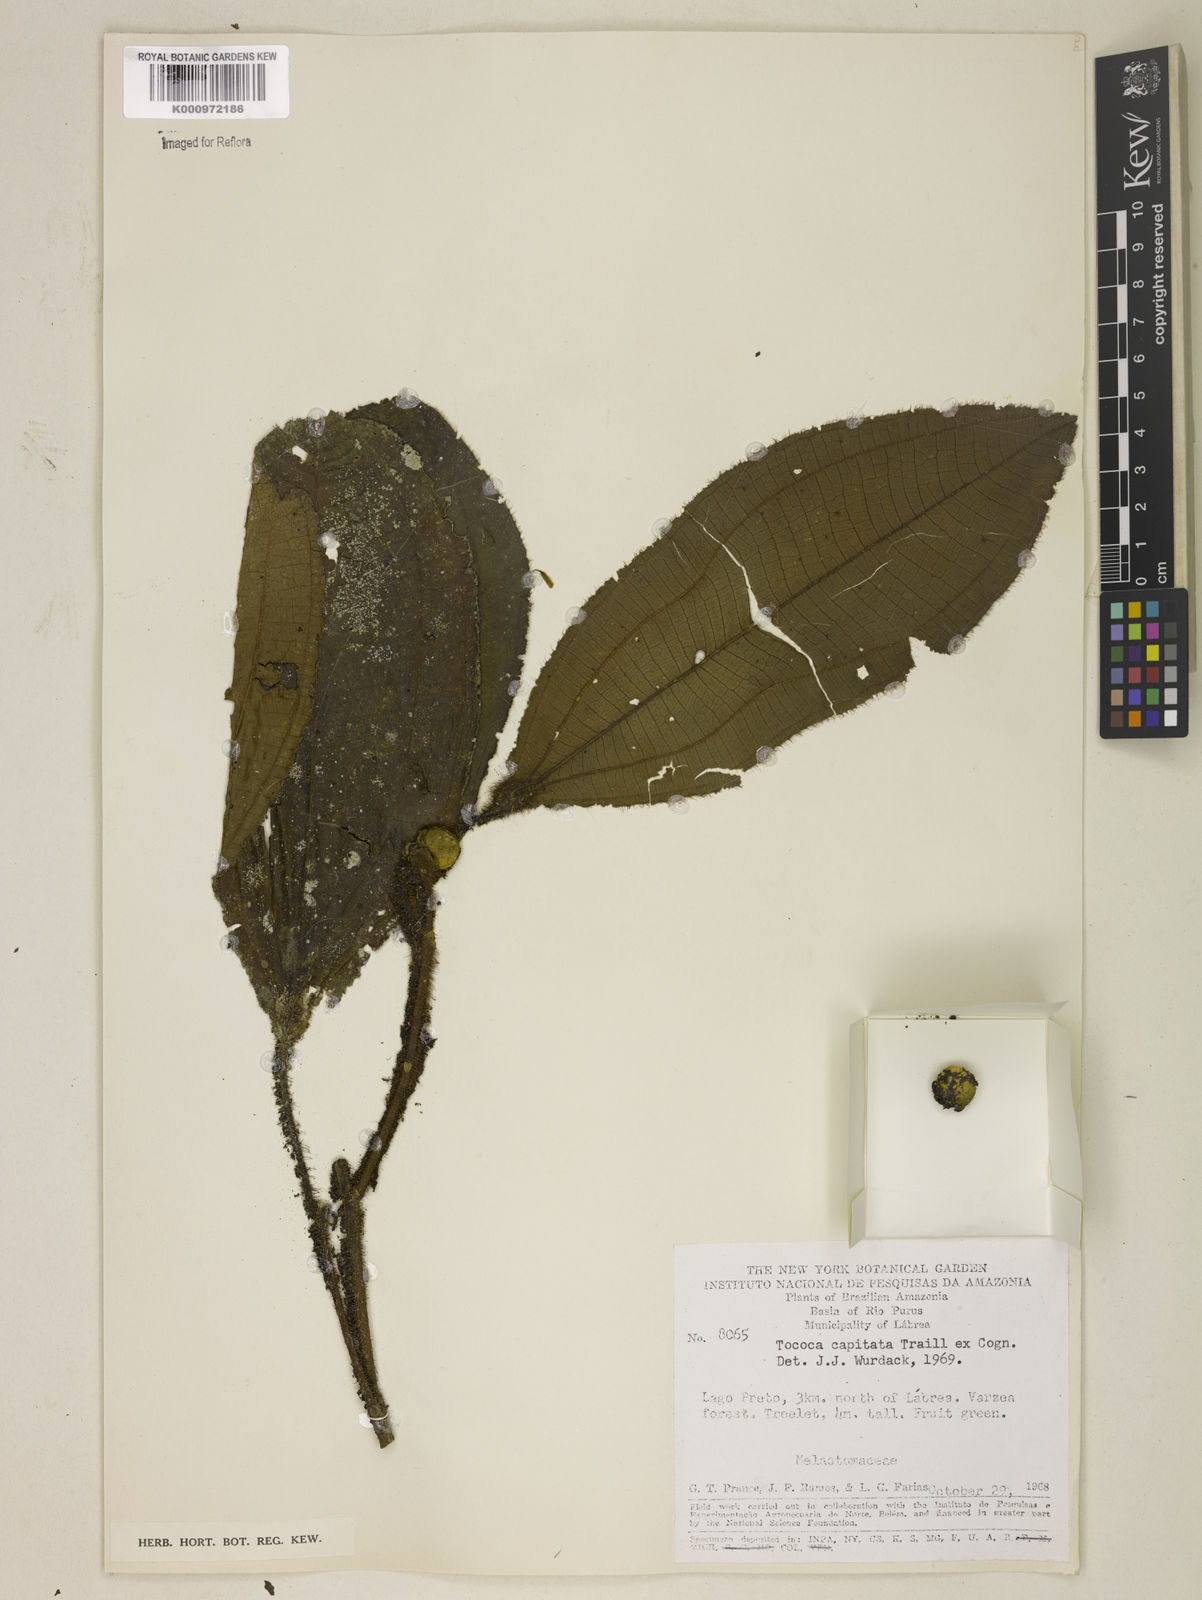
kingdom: Plantae
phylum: Tracheophyta
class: Magnoliopsida
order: Myrtales
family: Melastomataceae
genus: Miconia
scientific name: Miconia
